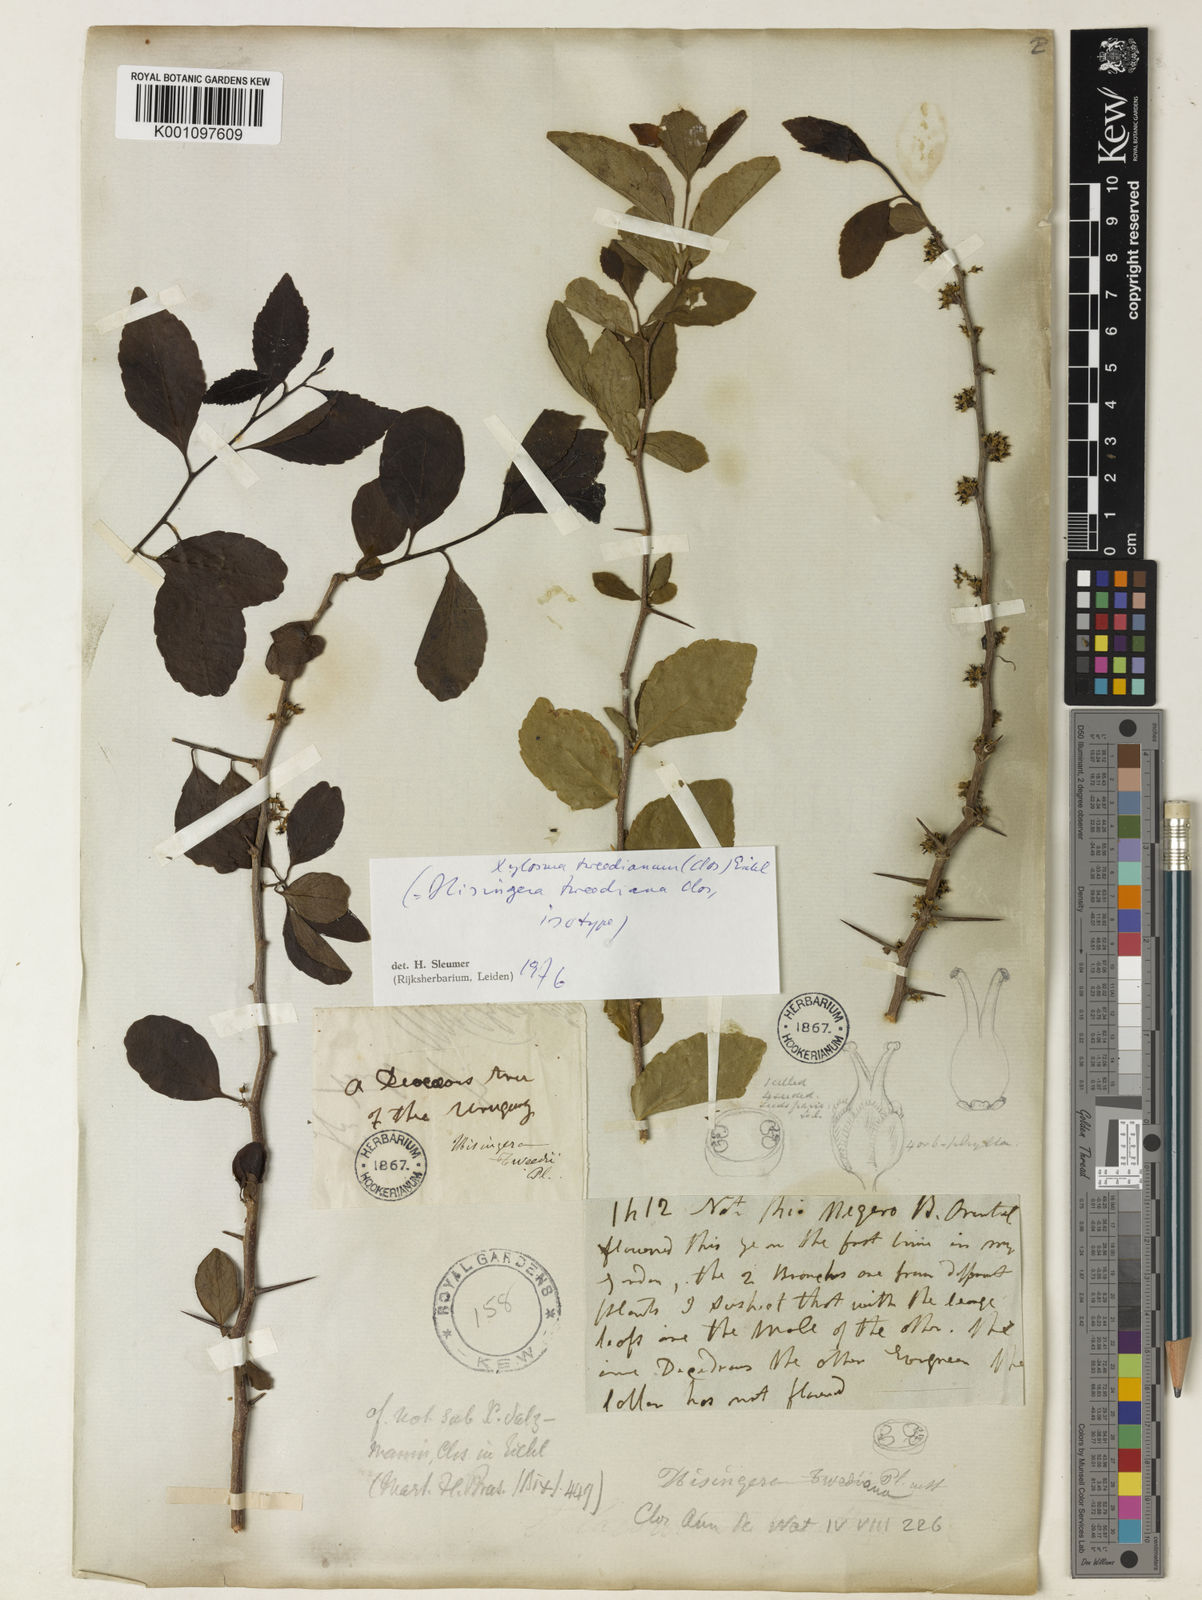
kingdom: Plantae
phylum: Tracheophyta
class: Magnoliopsida
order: Malpighiales
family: Salicaceae
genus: Xylosma
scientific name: Xylosma
